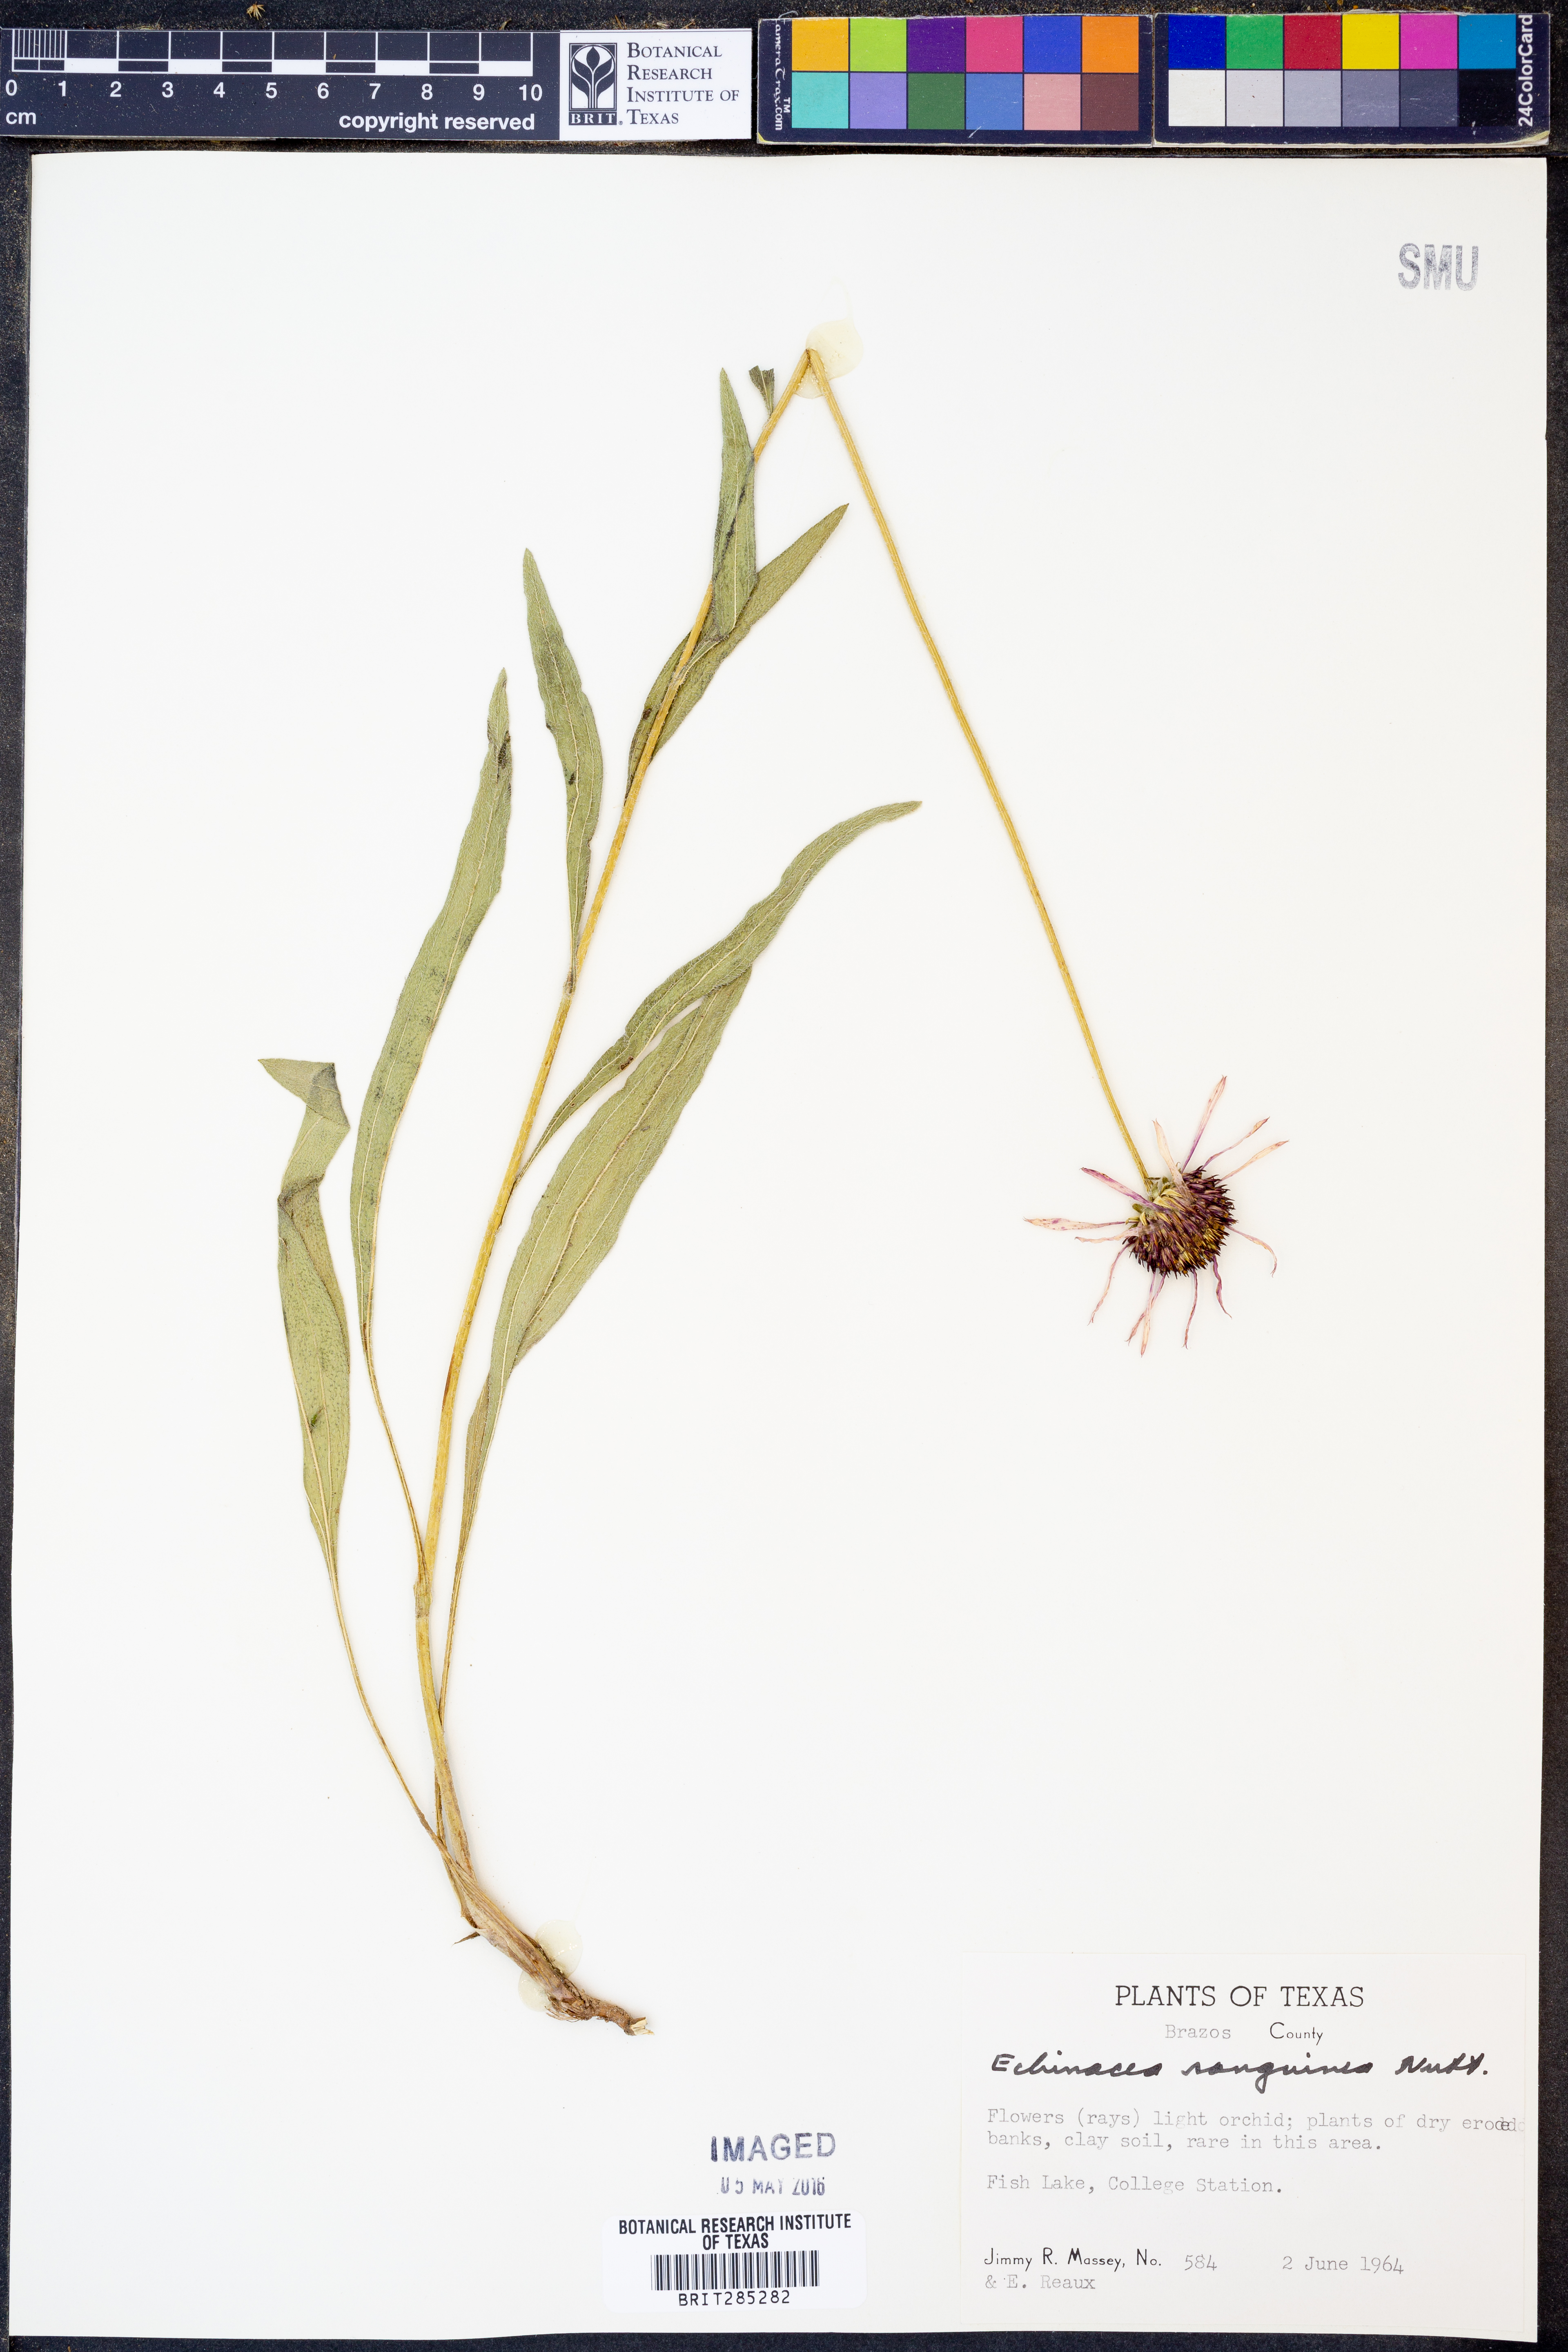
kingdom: Plantae
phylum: Tracheophyta
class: Magnoliopsida
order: Asterales
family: Asteraceae
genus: Echinacea
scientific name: Echinacea sanguinea
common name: Sanguine purple-coneflower
